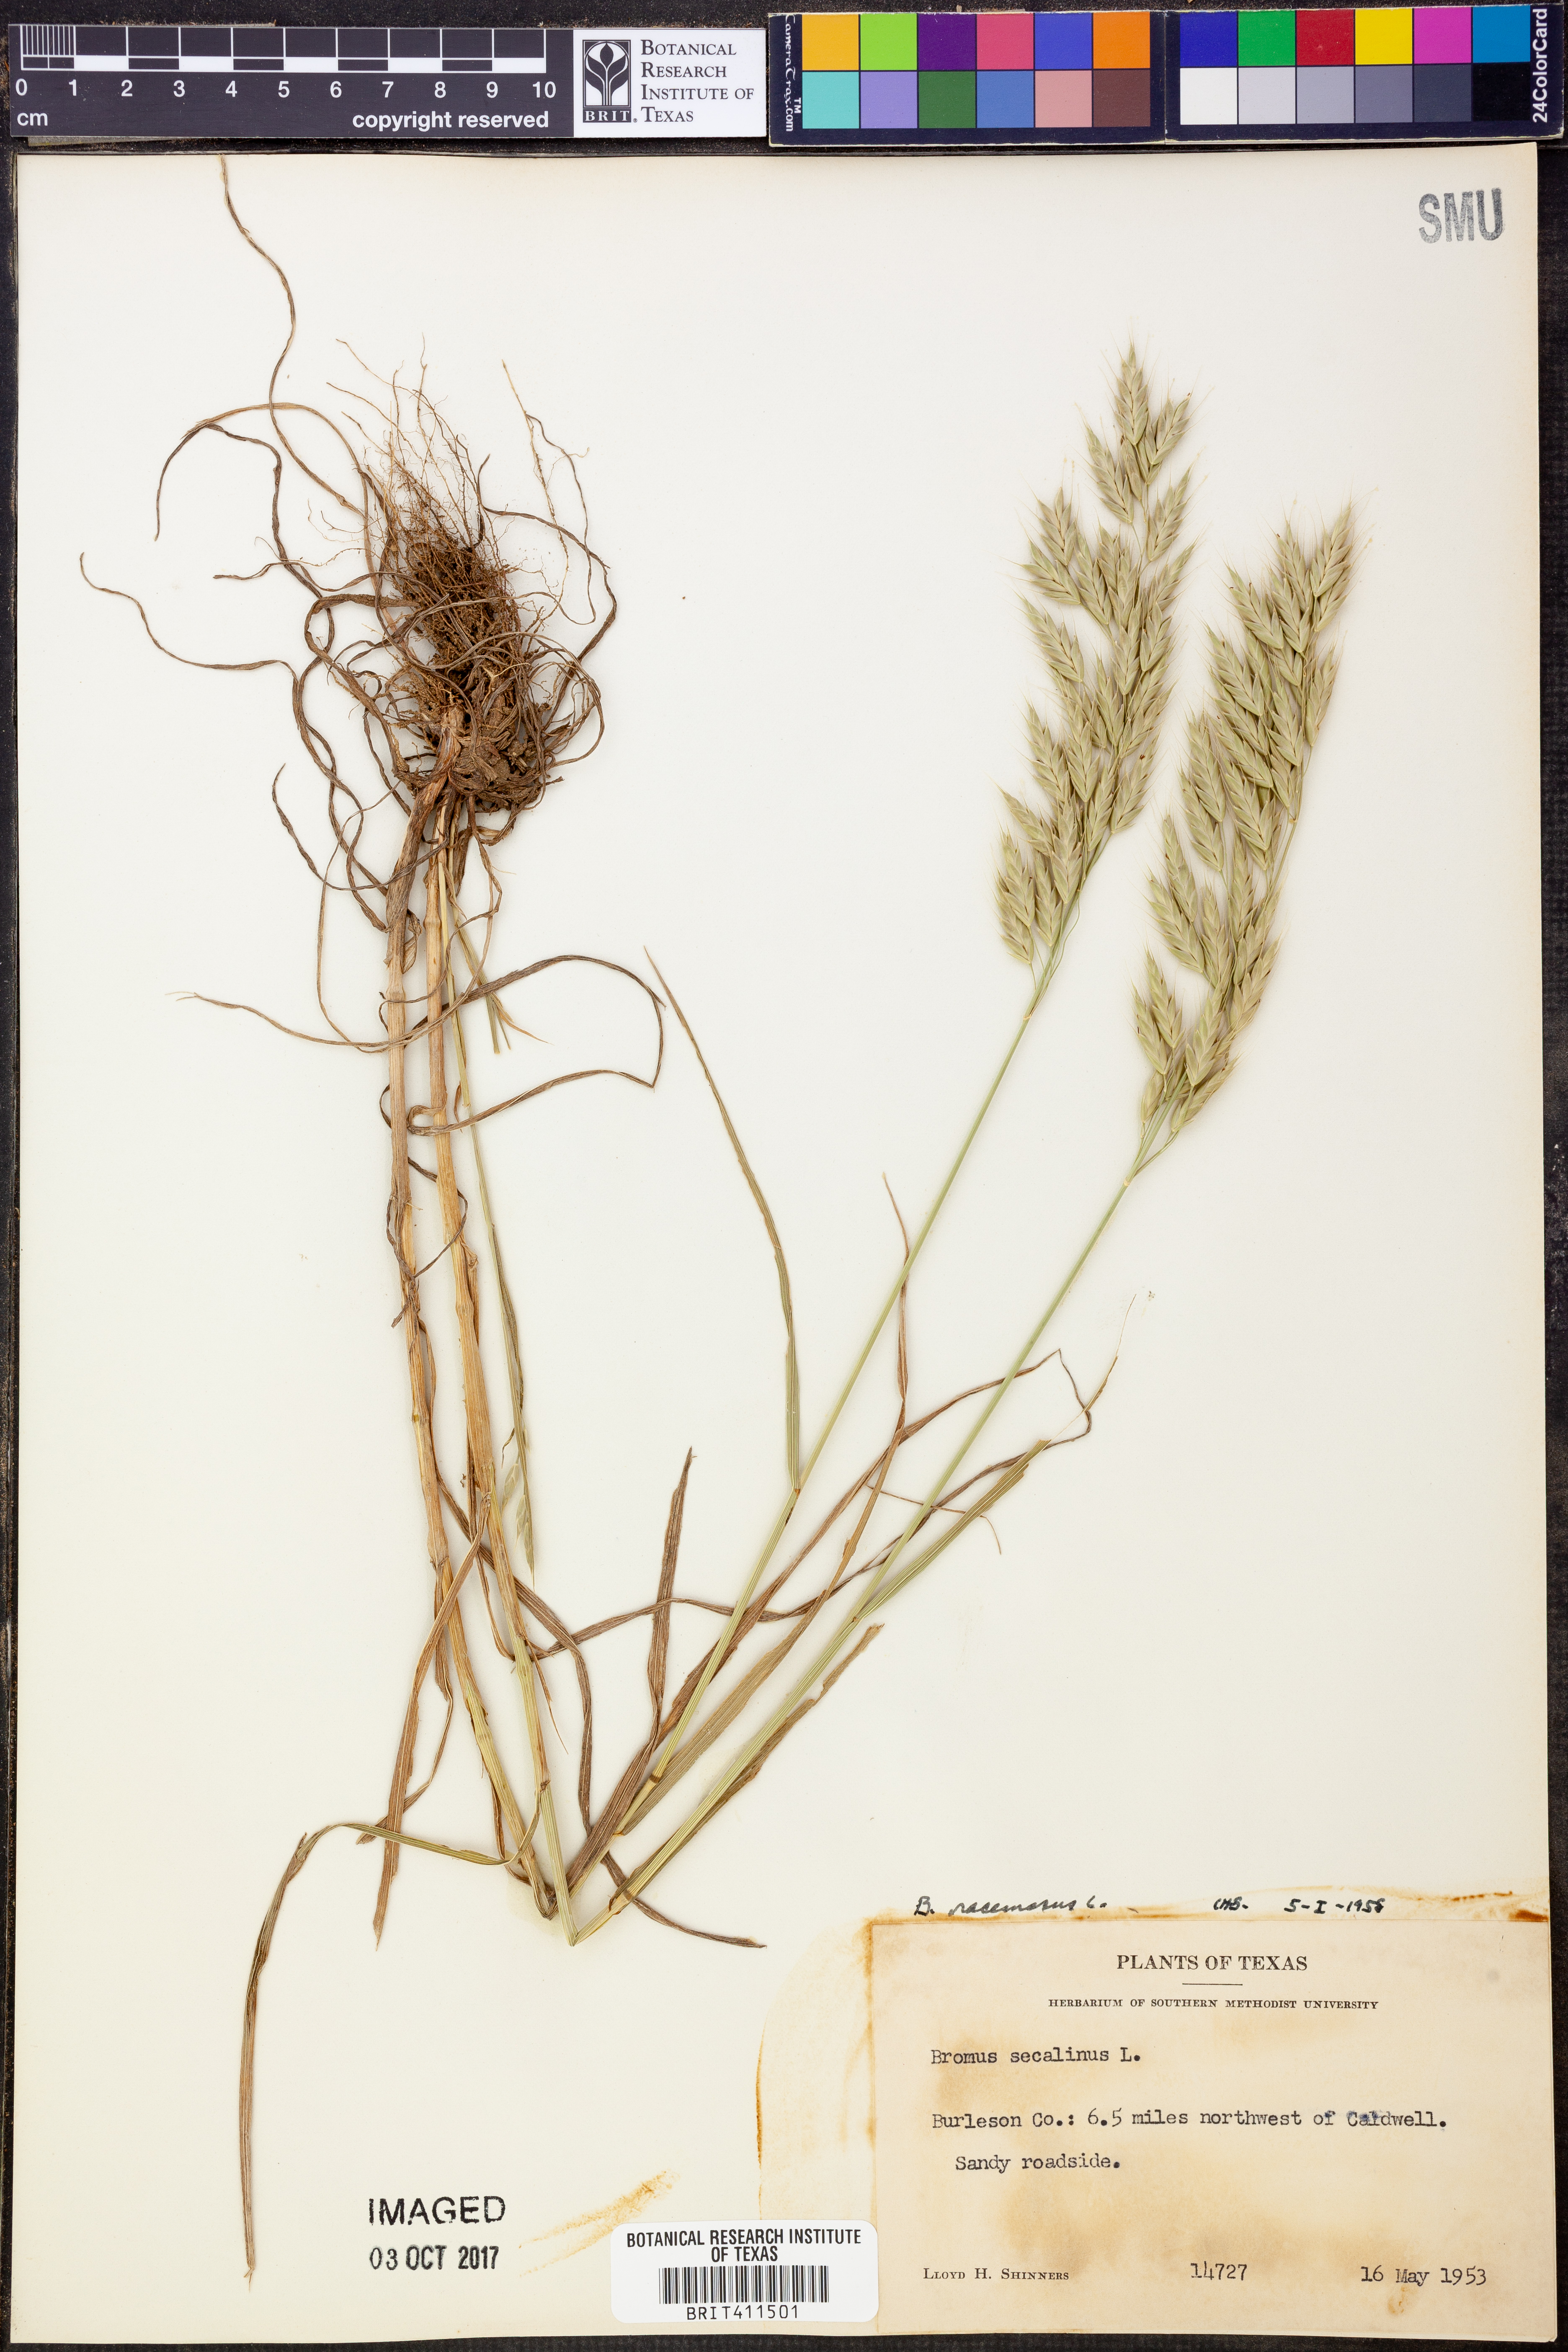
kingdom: Plantae
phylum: Tracheophyta
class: Liliopsida
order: Poales
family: Poaceae
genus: Bromus
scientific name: Bromus secalinus
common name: Rye brome
